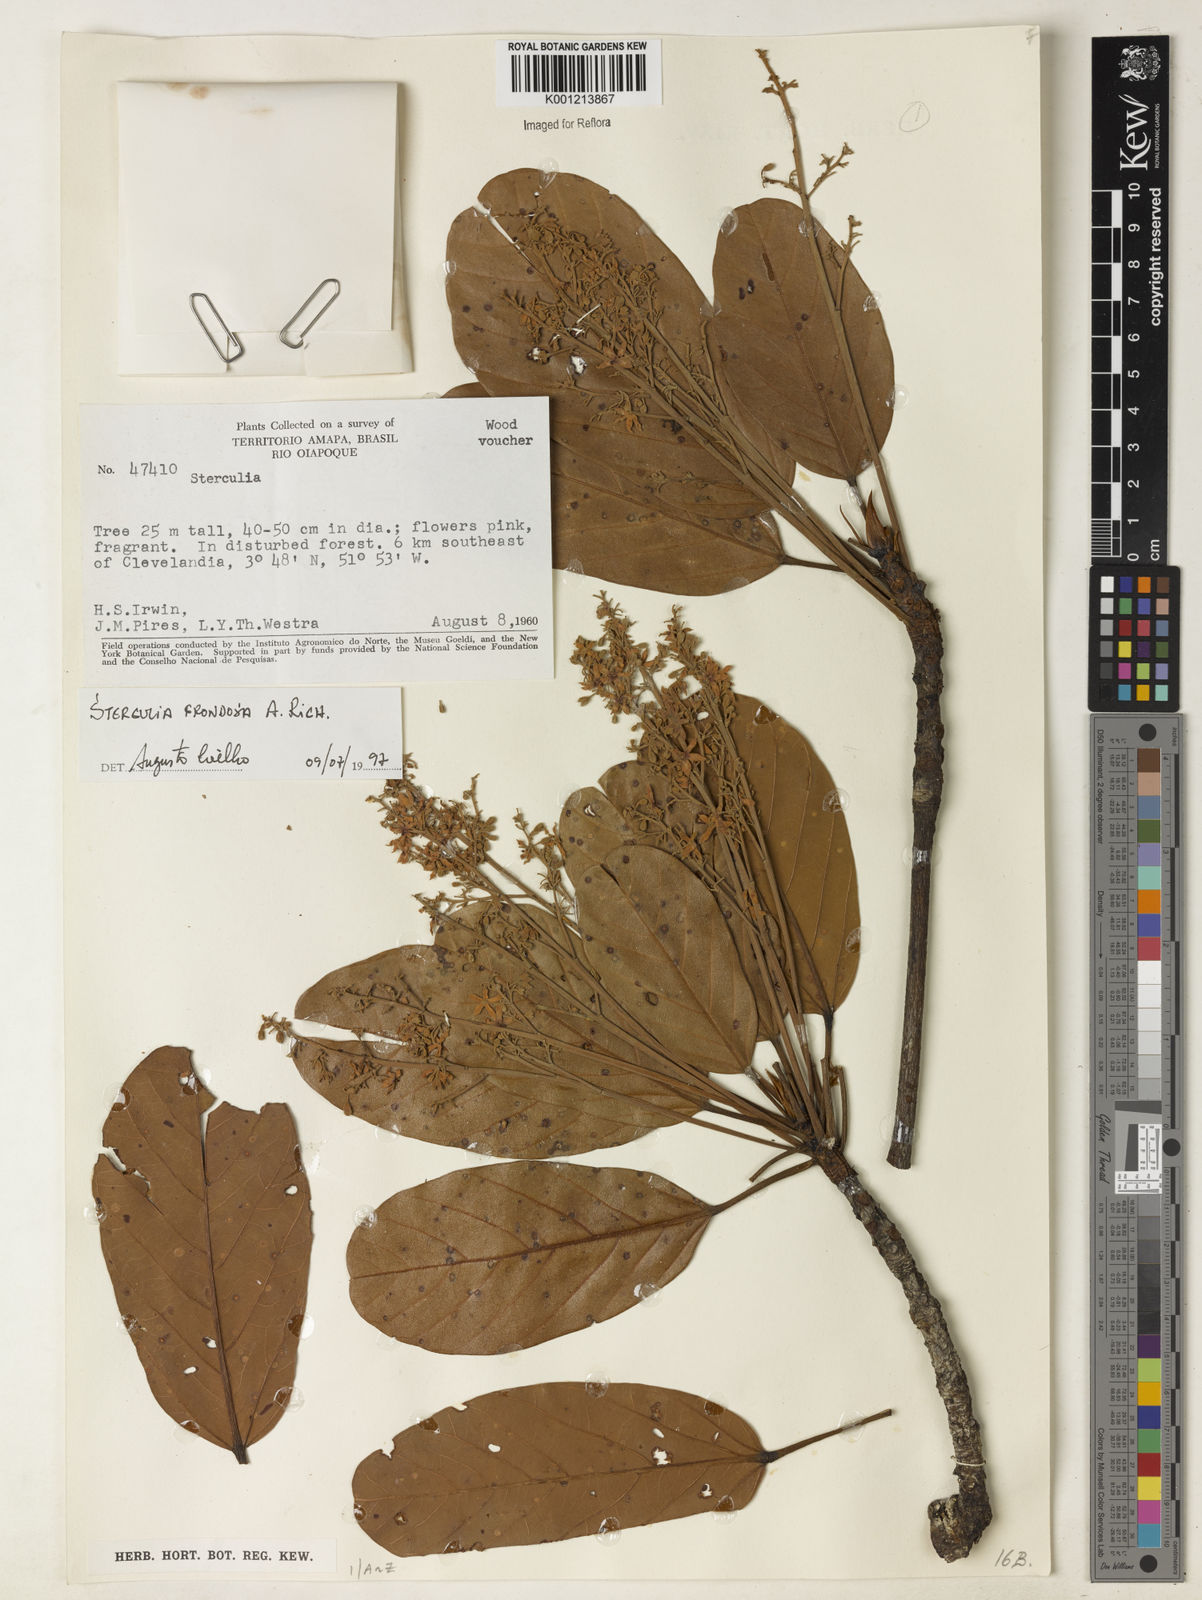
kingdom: Plantae
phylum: Tracheophyta
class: Magnoliopsida
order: Malvales
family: Malvaceae
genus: Sterculia
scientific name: Sterculia frondosa
